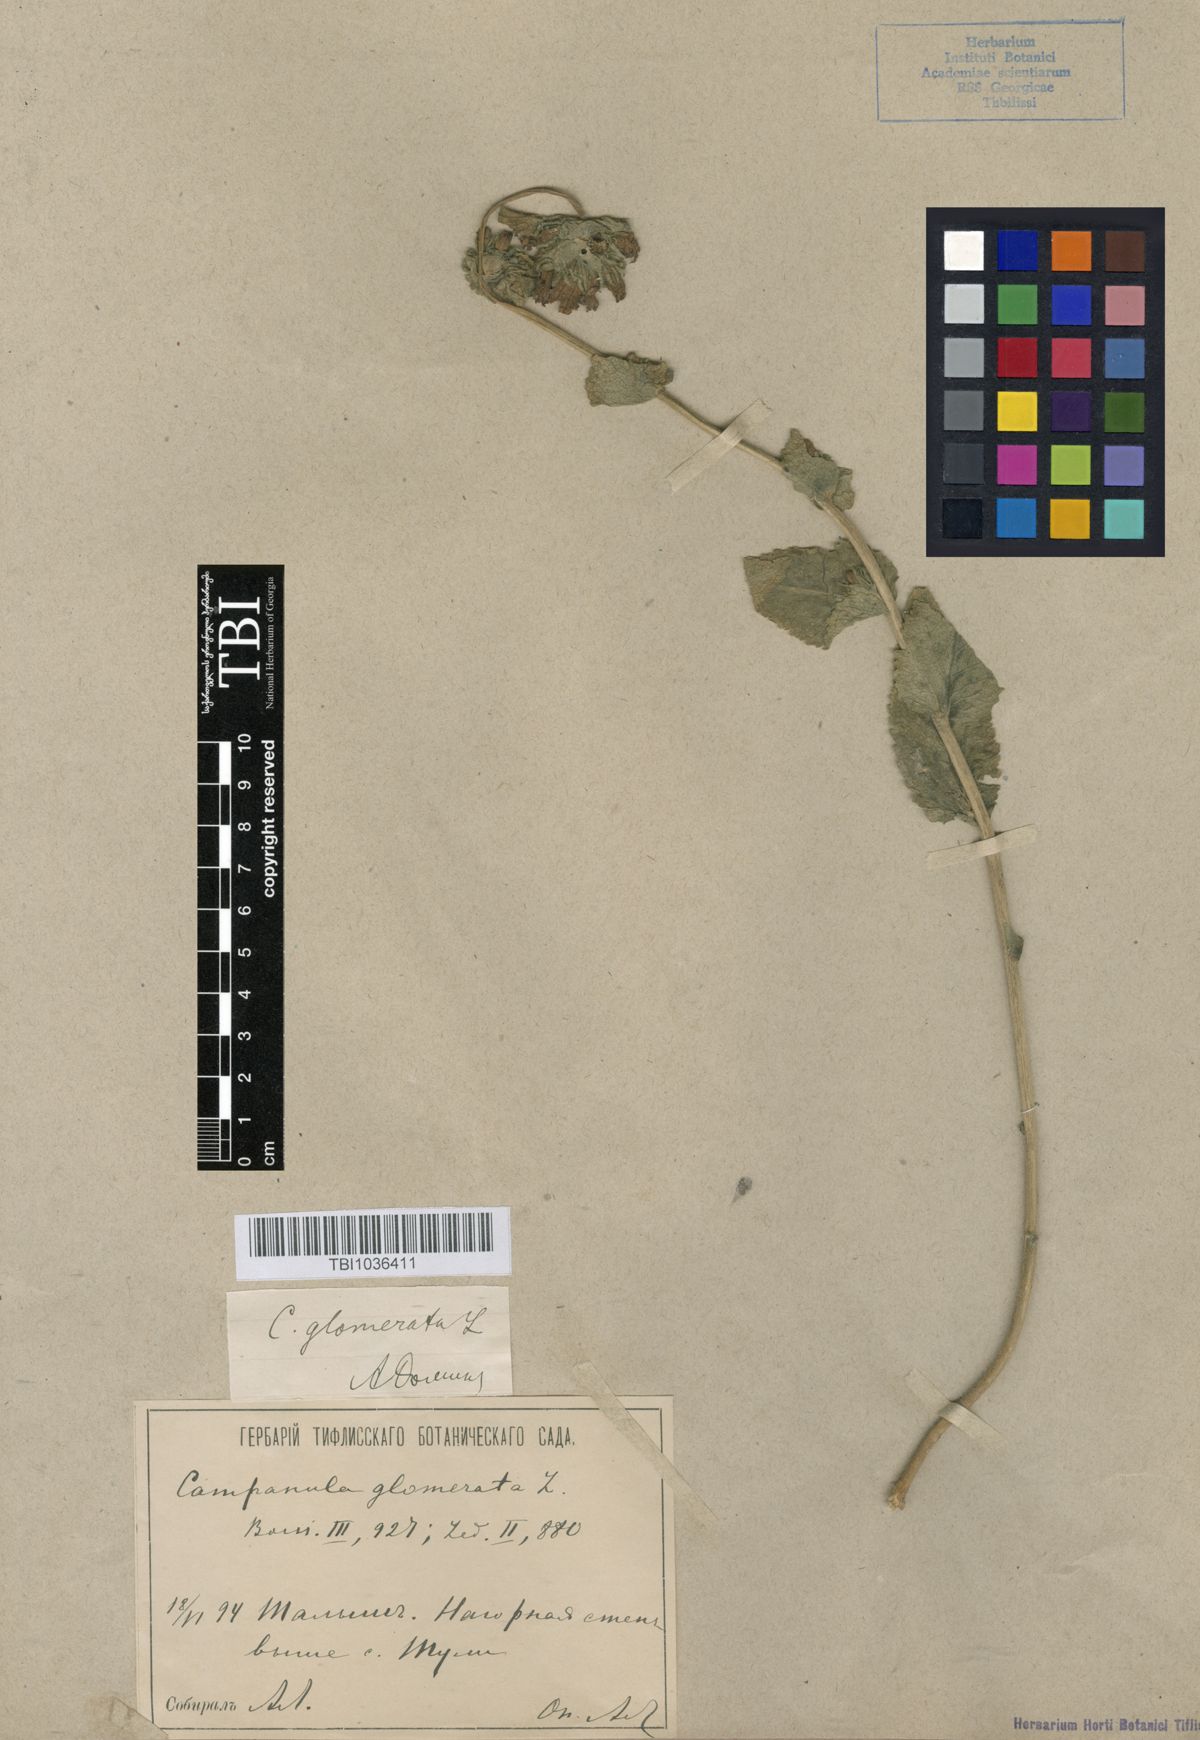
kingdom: Plantae
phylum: Tracheophyta
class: Magnoliopsida
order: Asterales
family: Campanulaceae
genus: Campanula
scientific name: Campanula glomerata
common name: Clustered bellflower
